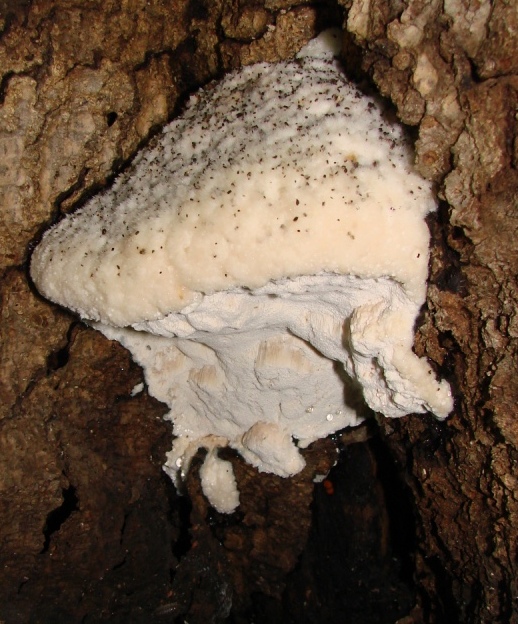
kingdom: Fungi
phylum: Basidiomycota
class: Agaricomycetes
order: Polyporales
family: Meruliaceae
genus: Pappia
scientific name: Pappia fissilis
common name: rosa fedtporesvamp
